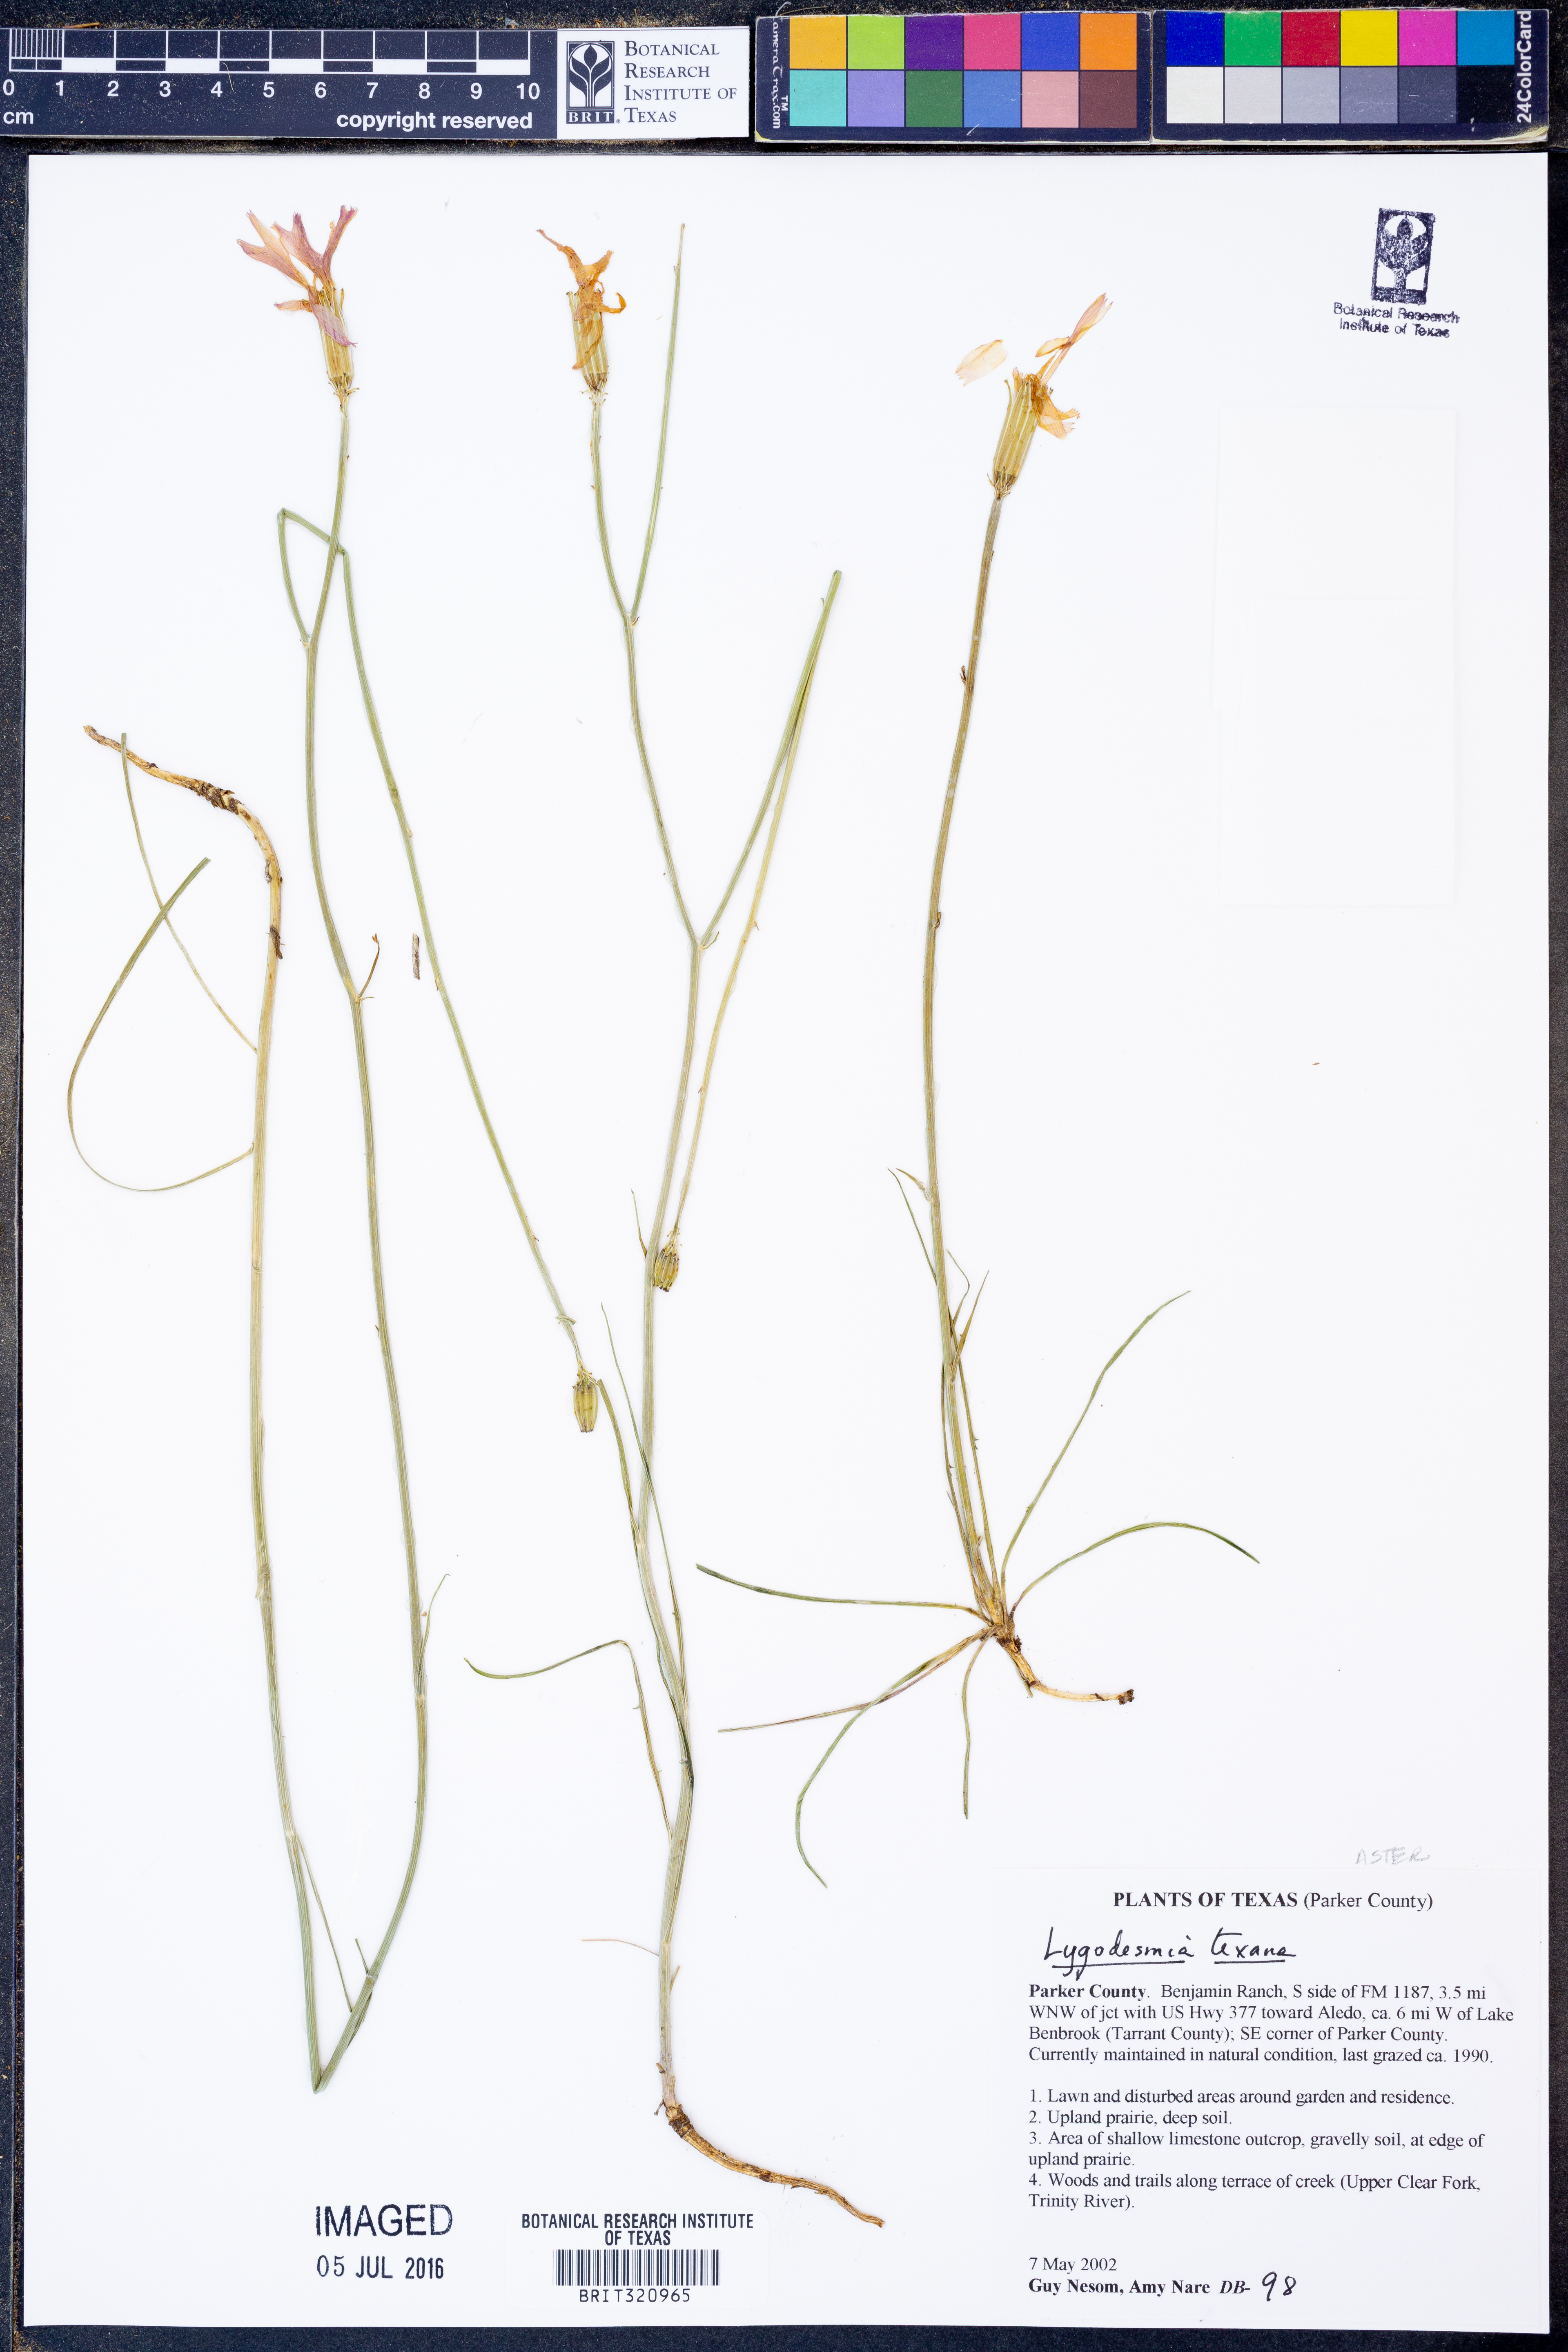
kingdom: Plantae
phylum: Tracheophyta
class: Magnoliopsida
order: Asterales
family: Asteraceae
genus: Lygodesmia
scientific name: Lygodesmia texana
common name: Texas skeleton-plant
